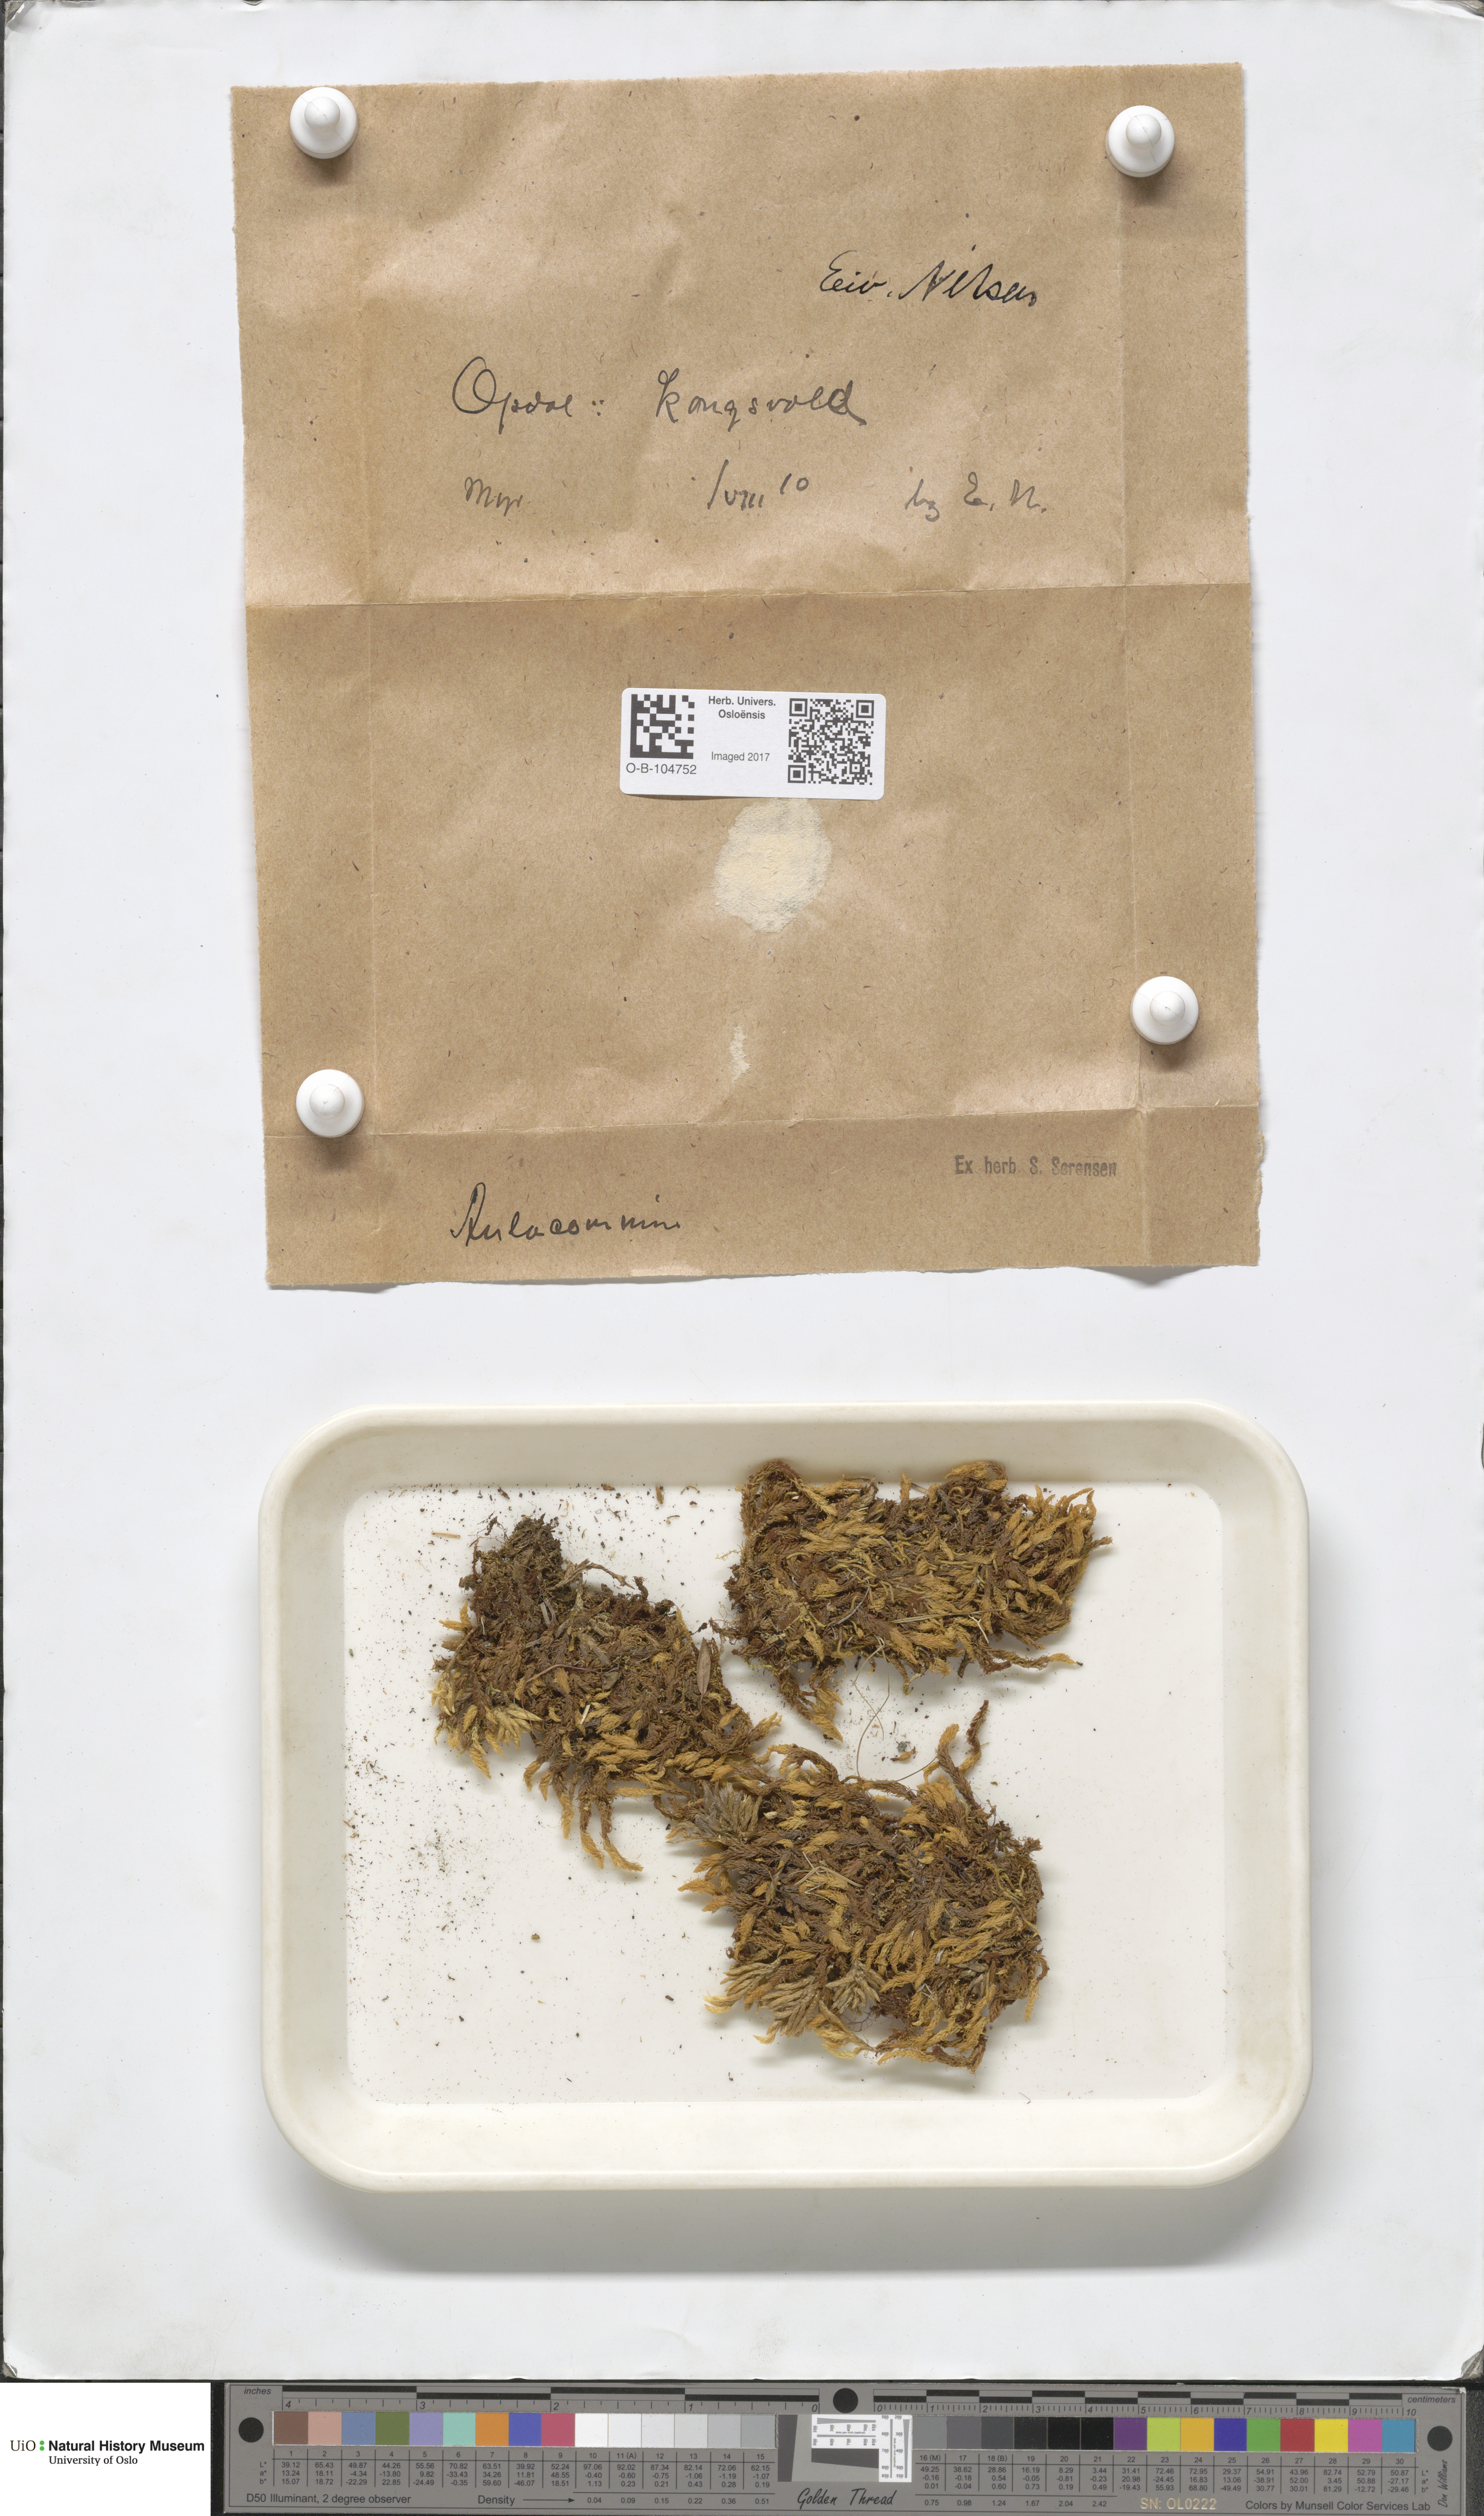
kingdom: Plantae
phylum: Bryophyta
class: Bryopsida
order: Aulacomniales
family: Aulacomniaceae
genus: Aulacomnium
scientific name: Aulacomnium
